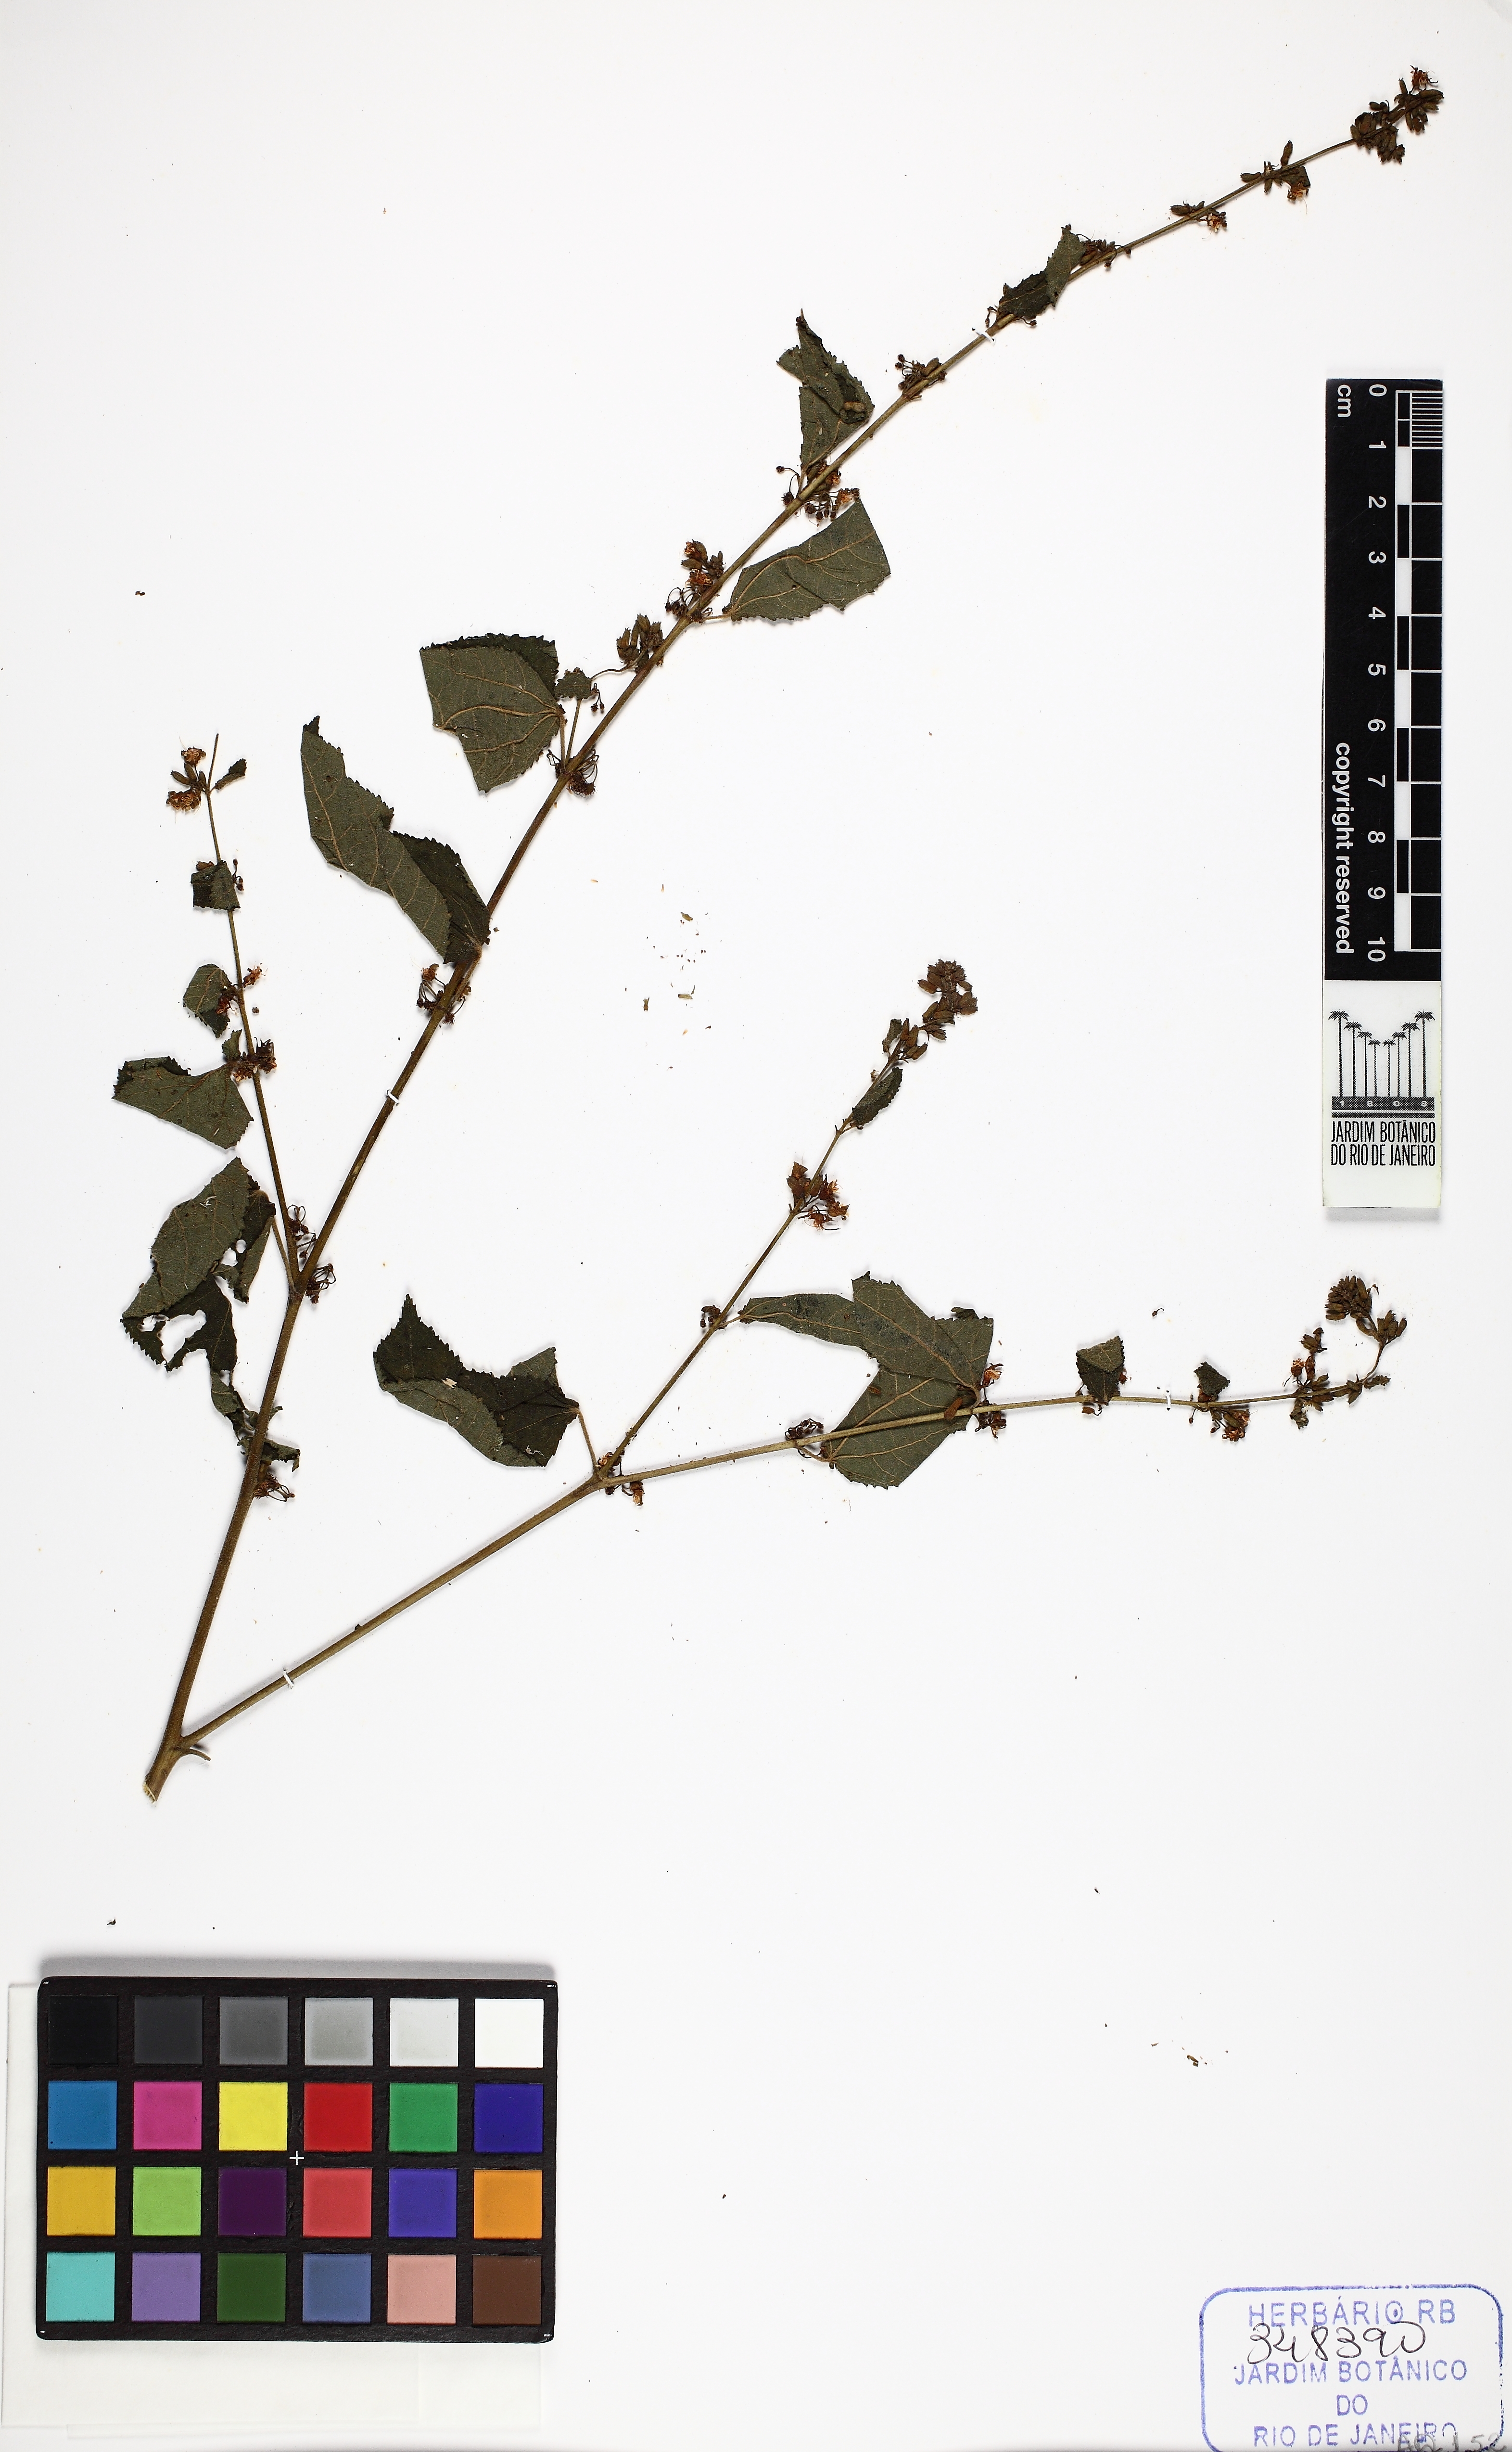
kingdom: Plantae
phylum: Tracheophyta
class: Magnoliopsida
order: Malvales
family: Malvaceae
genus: Triumfetta
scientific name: Triumfetta rhomboidea
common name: Diamond burbark
